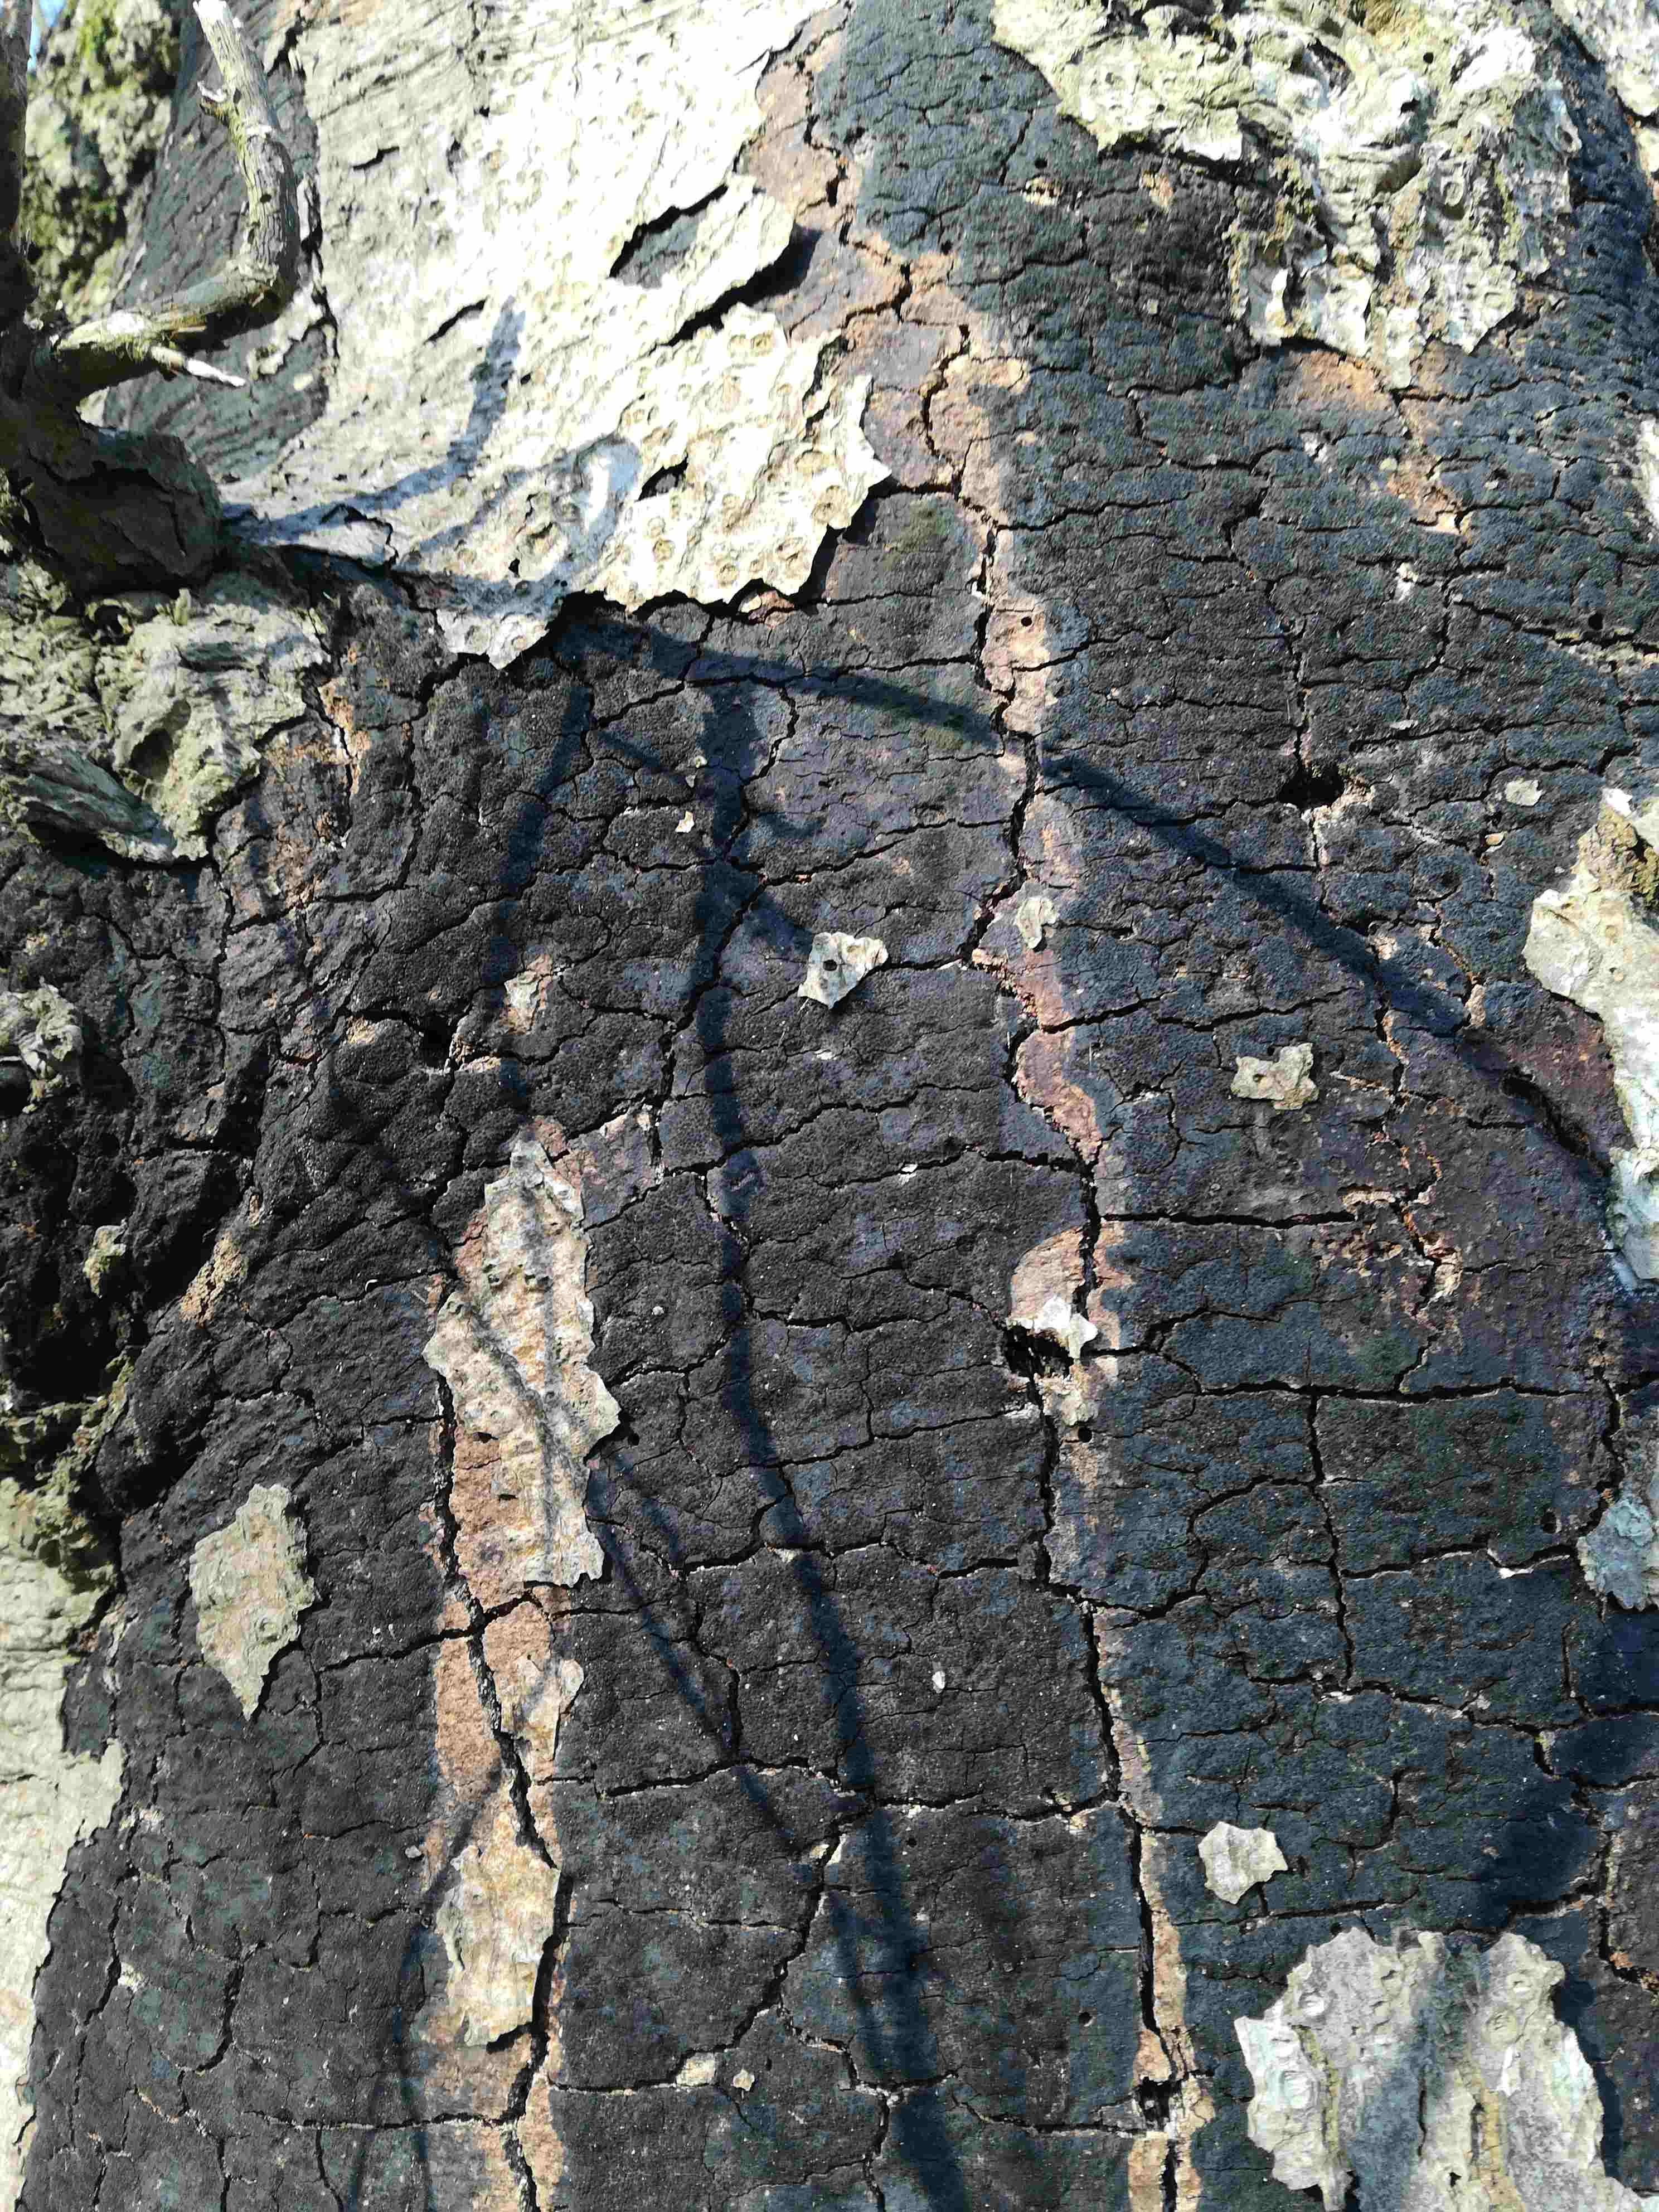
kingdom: Fungi
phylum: Ascomycota
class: Sordariomycetes
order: Xylariales
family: Diatrypaceae
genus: Eutypa
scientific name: Eutypa spinosa
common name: grov kulskorpe
